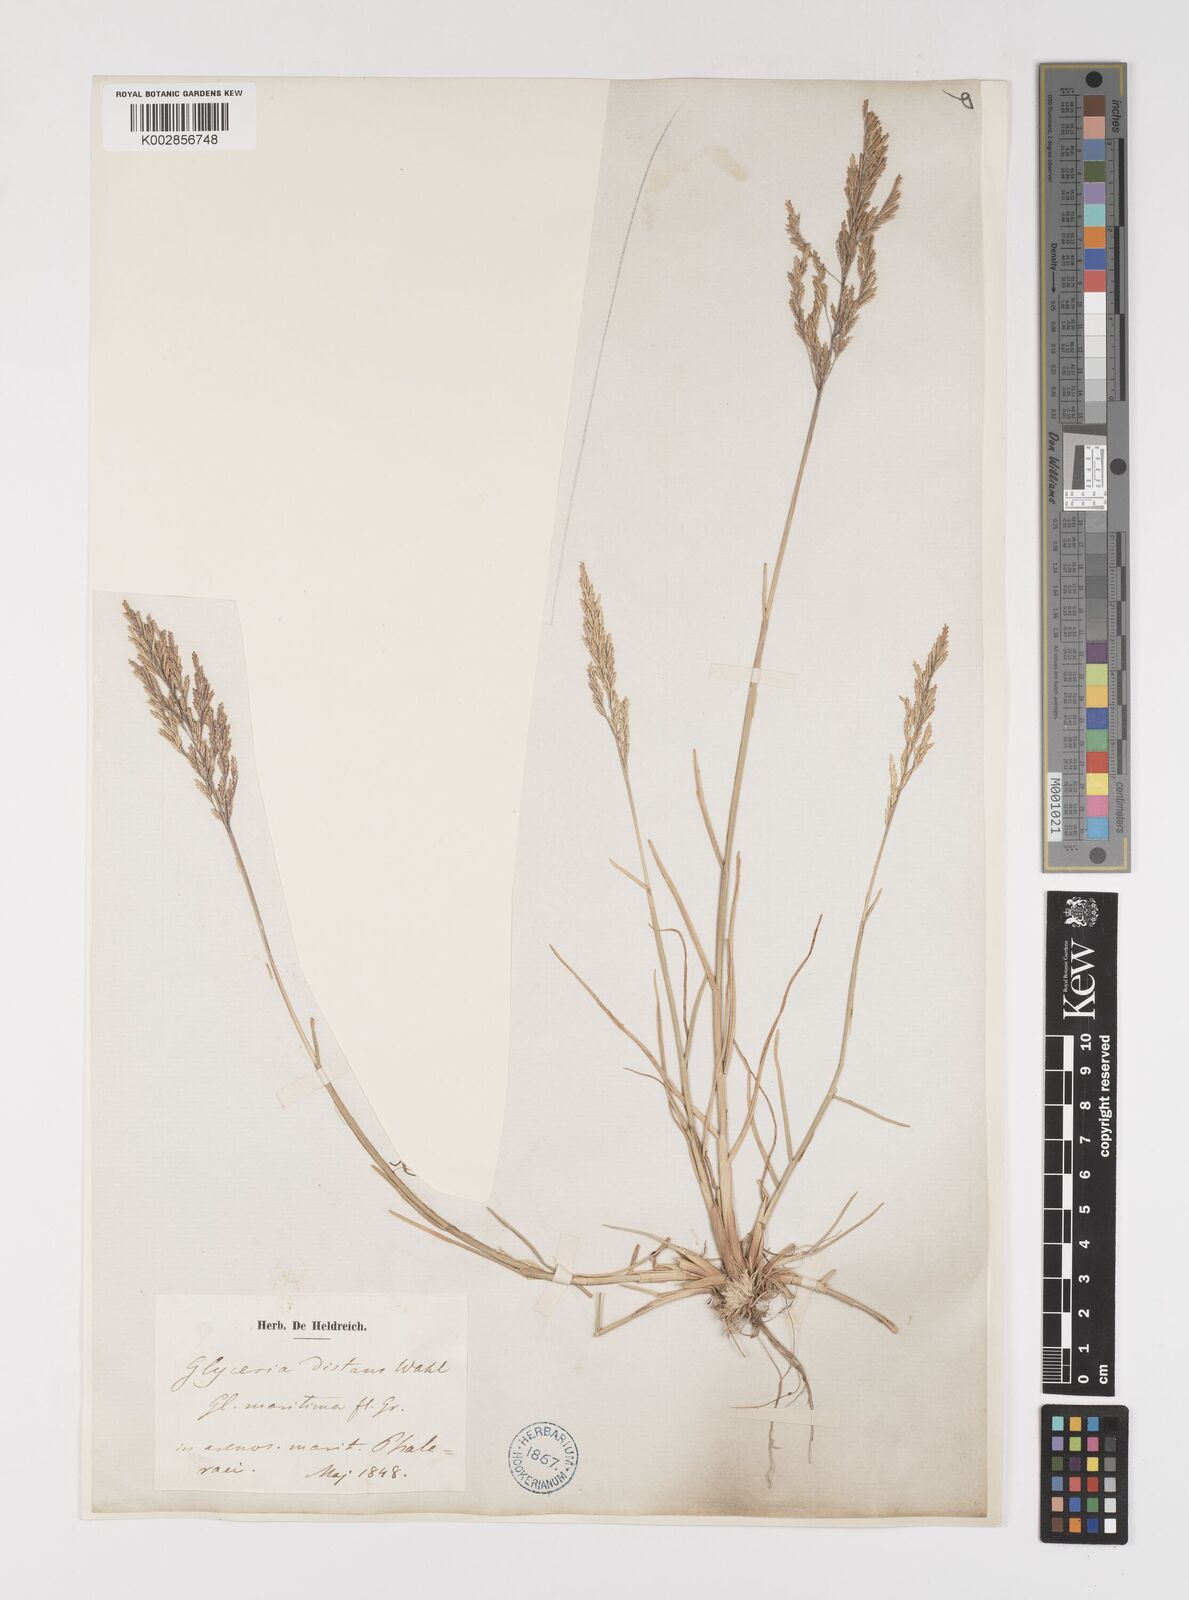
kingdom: Plantae
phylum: Tracheophyta
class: Liliopsida
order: Poales
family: Poaceae
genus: Puccinellia
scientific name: Puccinellia
